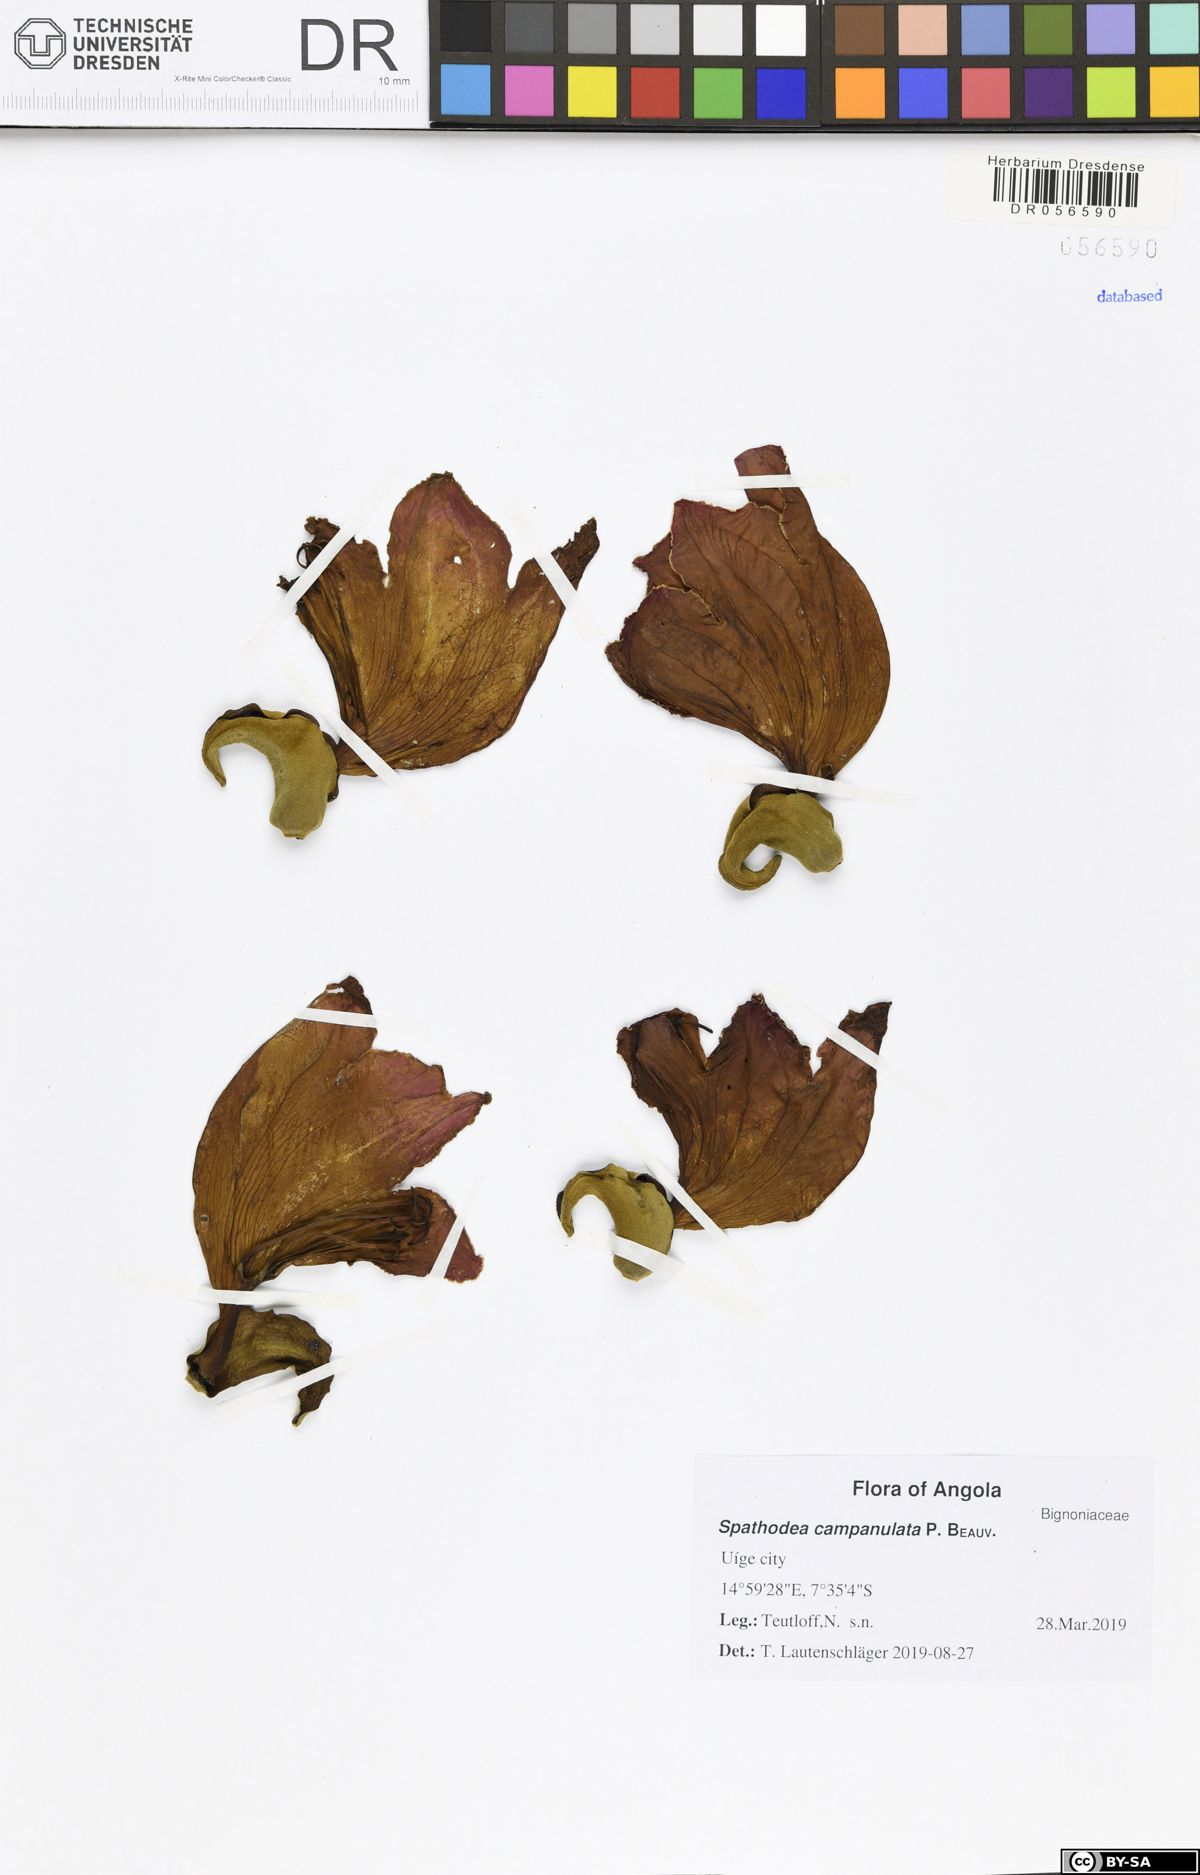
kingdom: Plantae
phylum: Tracheophyta
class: Magnoliopsida
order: Lamiales
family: Bignoniaceae
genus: Spathodea
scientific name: Spathodea campanulata
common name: African tuliptree
